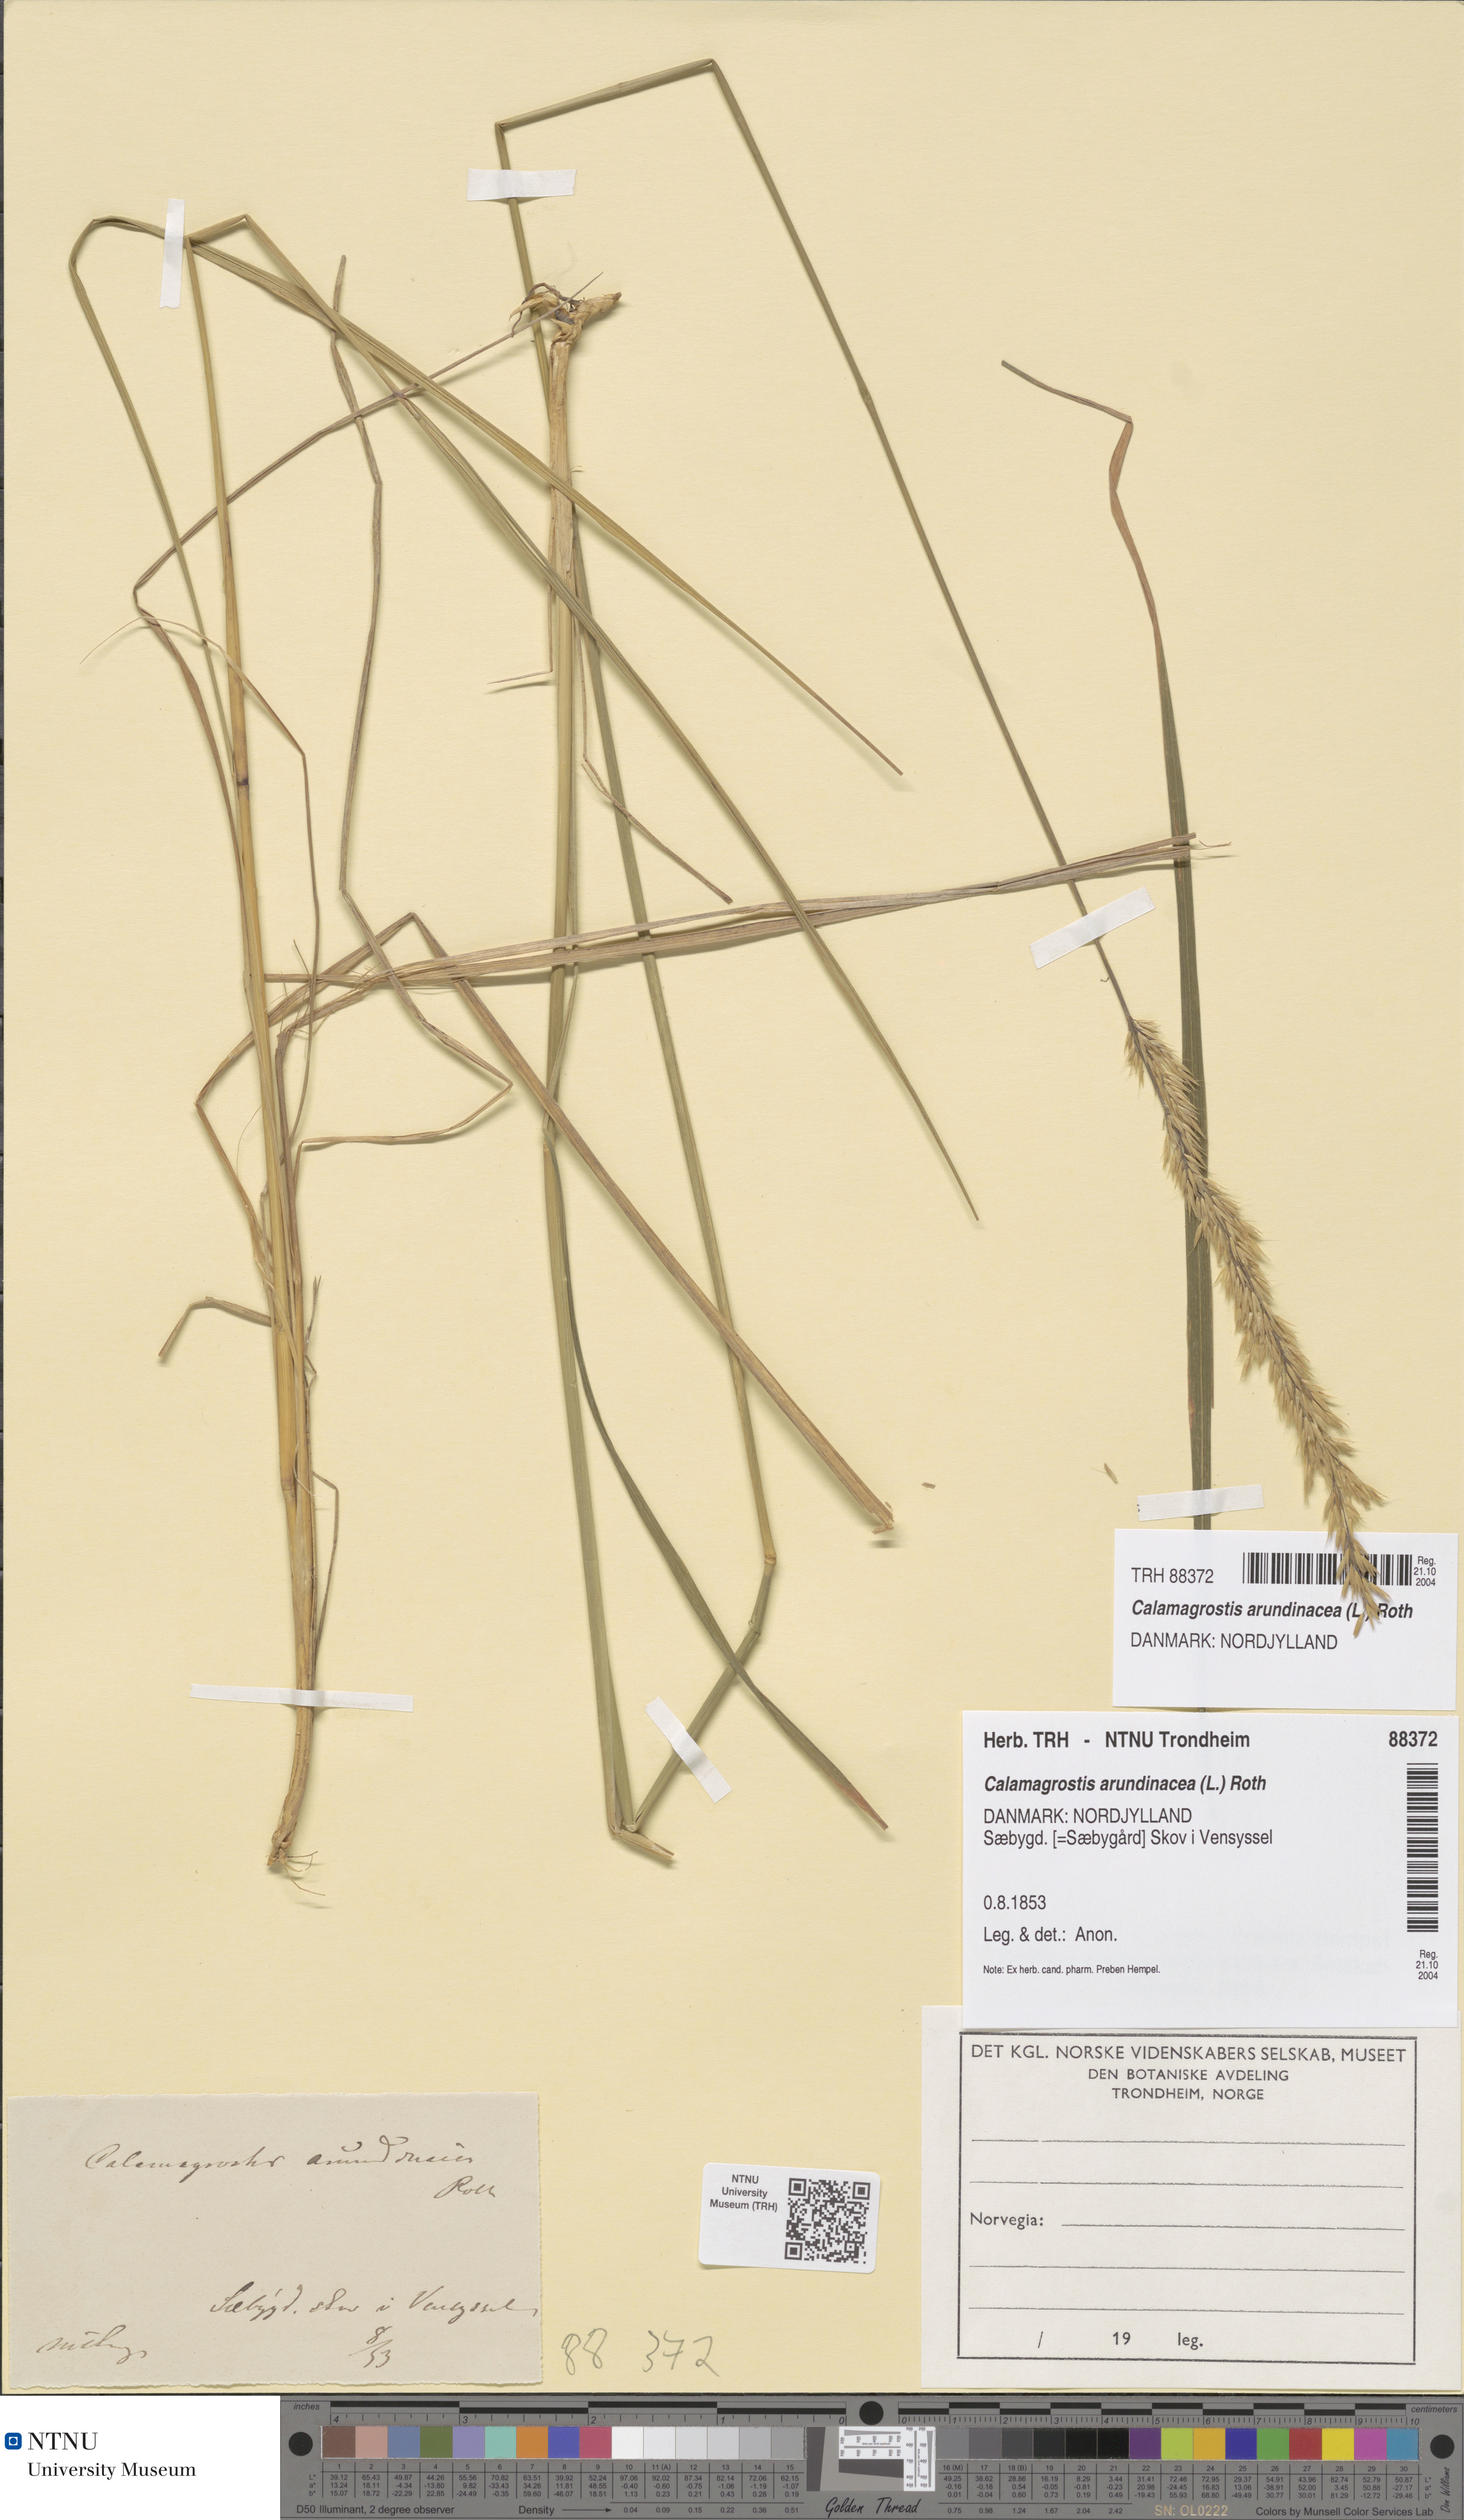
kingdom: Plantae
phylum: Tracheophyta
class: Liliopsida
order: Poales
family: Poaceae
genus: Calamagrostis
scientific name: Calamagrostis arundinacea
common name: Metskastik
